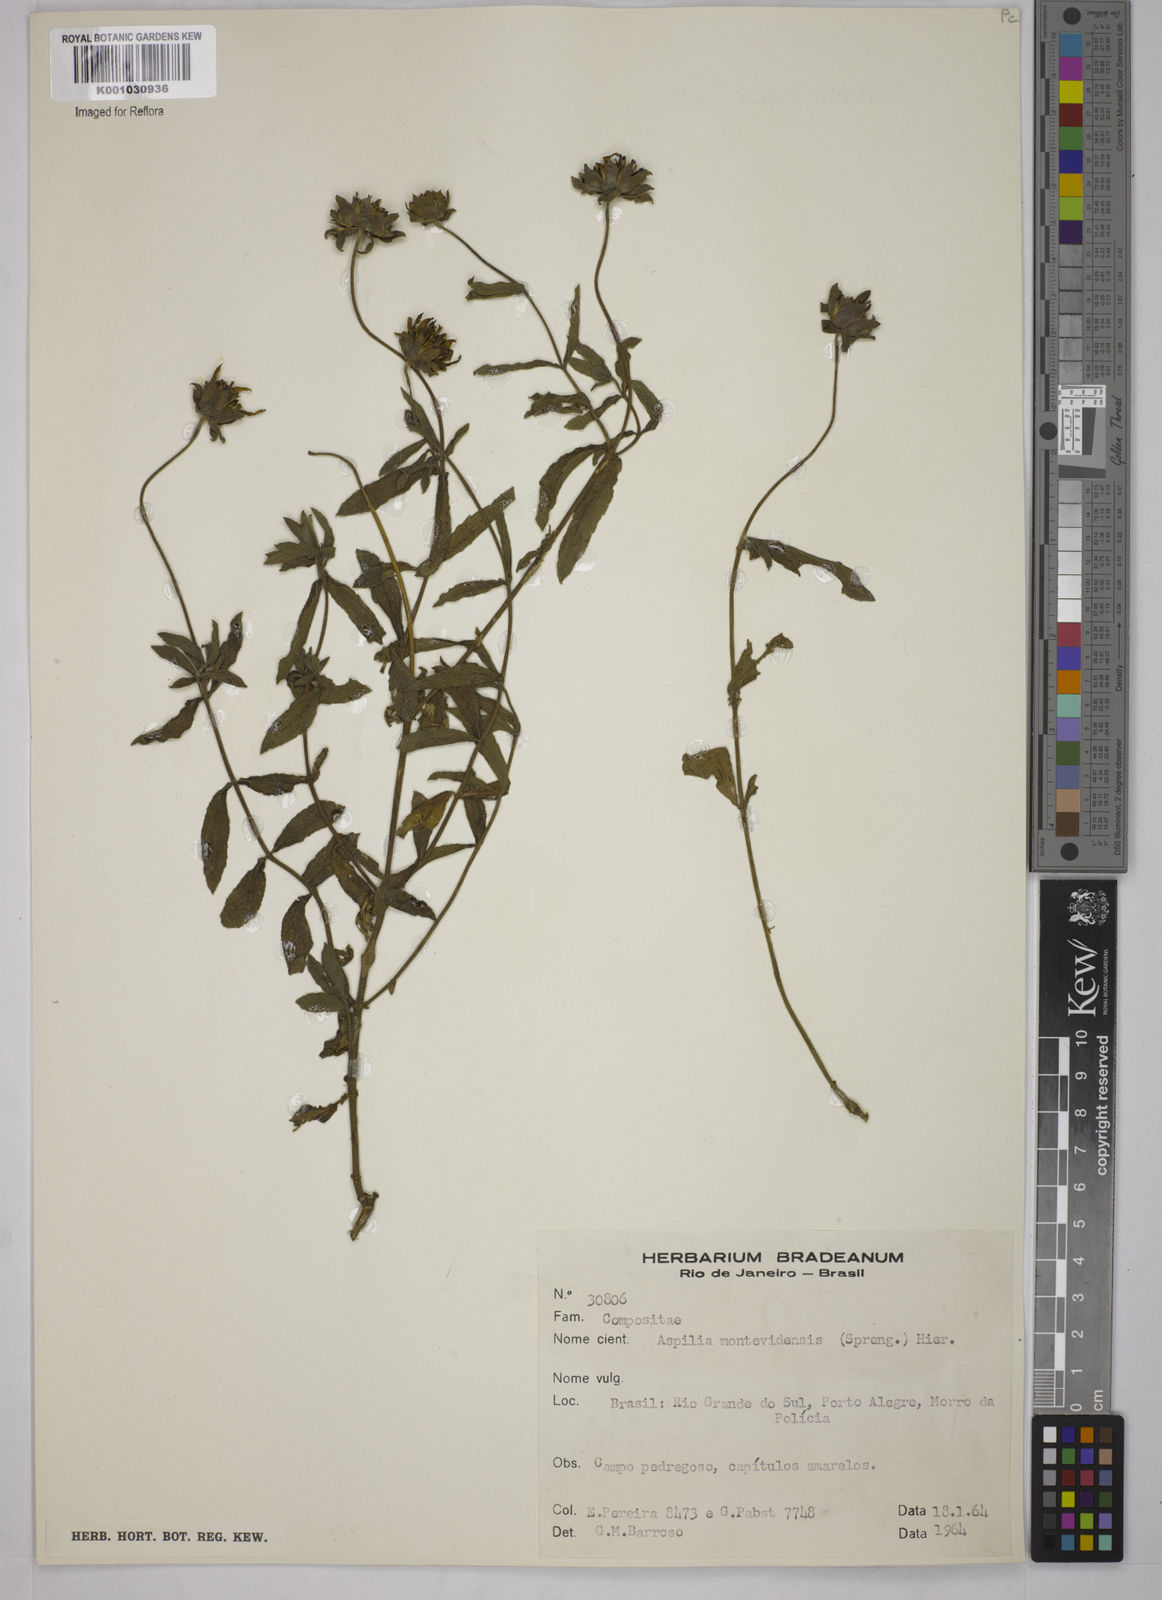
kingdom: Plantae
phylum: Tracheophyta
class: Magnoliopsida
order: Asterales
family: Asteraceae
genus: Wedelia
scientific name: Wedelia montevidensis
